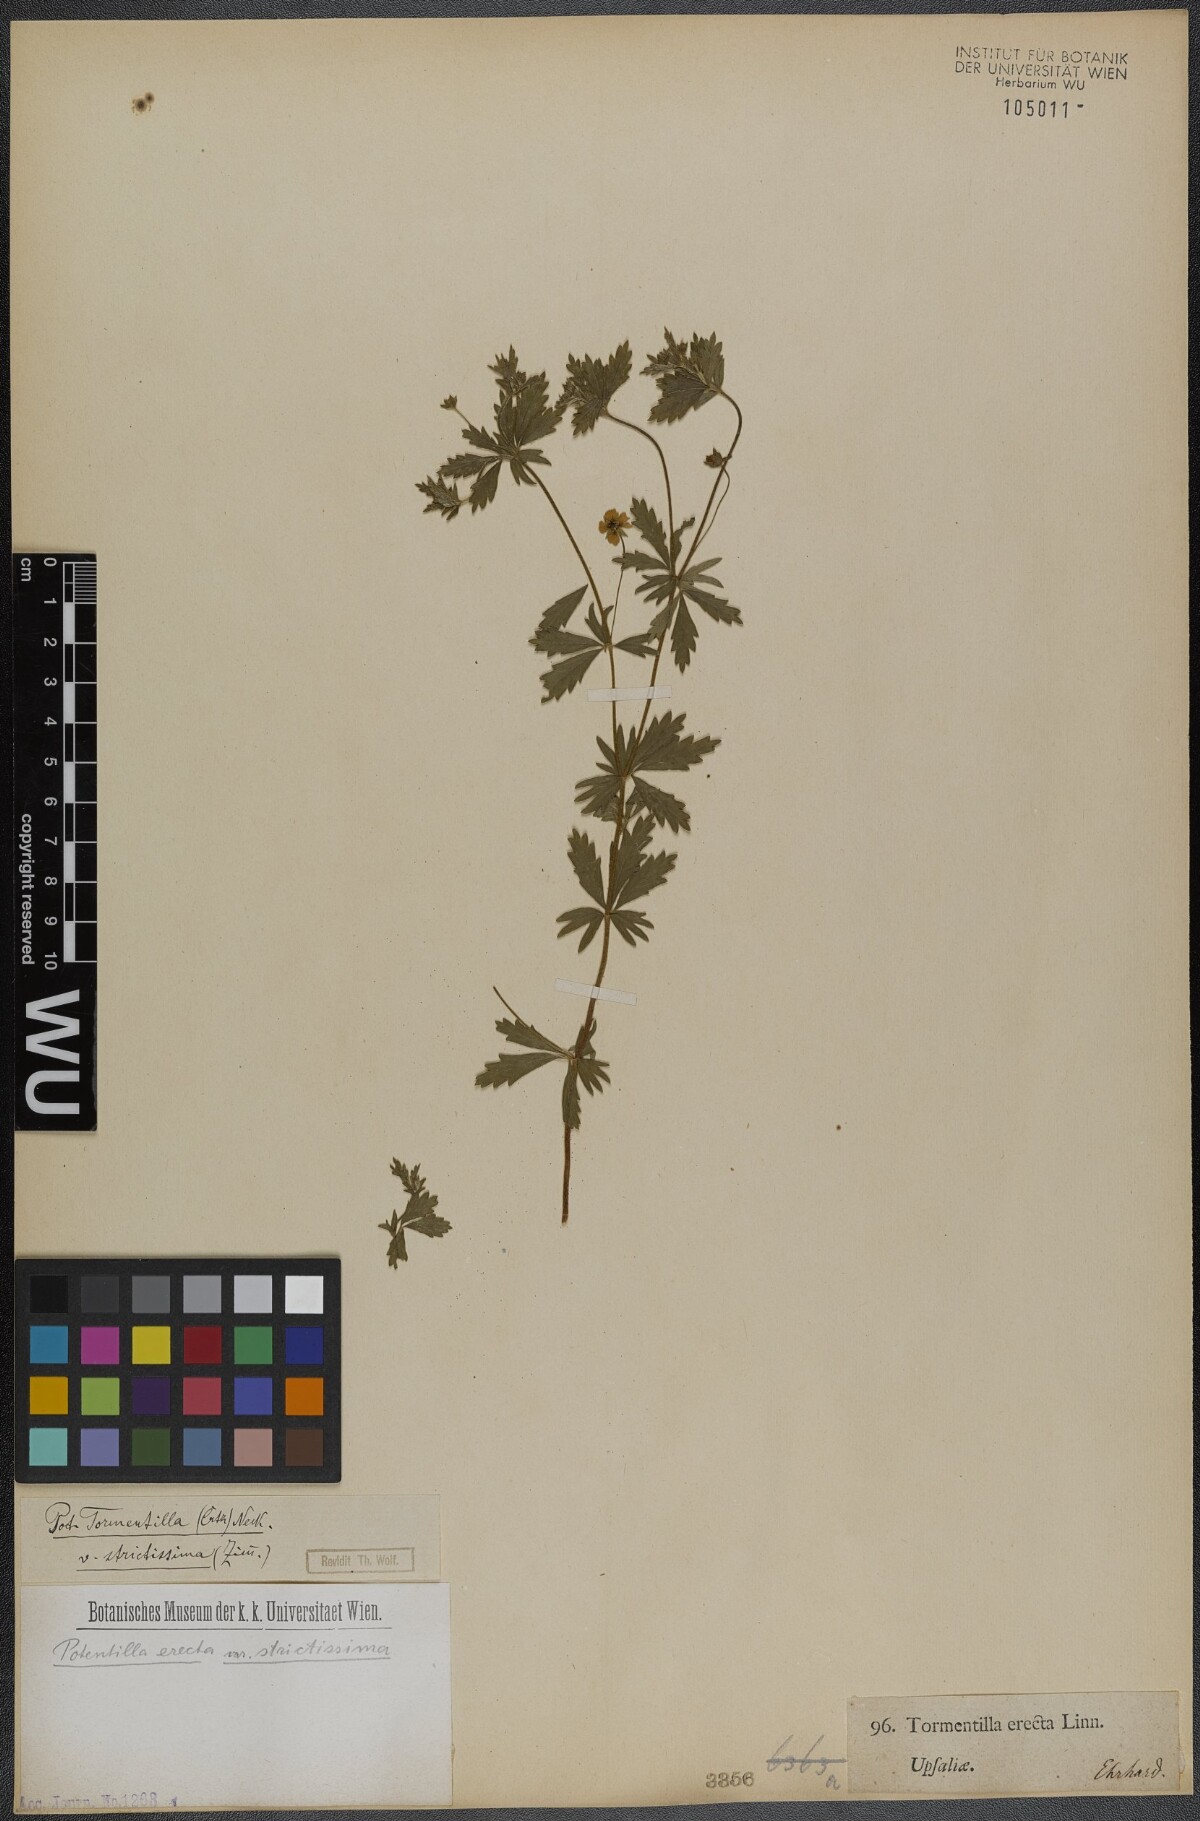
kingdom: Plantae
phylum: Tracheophyta
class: Magnoliopsida
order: Rosales
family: Rosaceae
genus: Potentilla
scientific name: Potentilla erecta
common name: Tormentil
